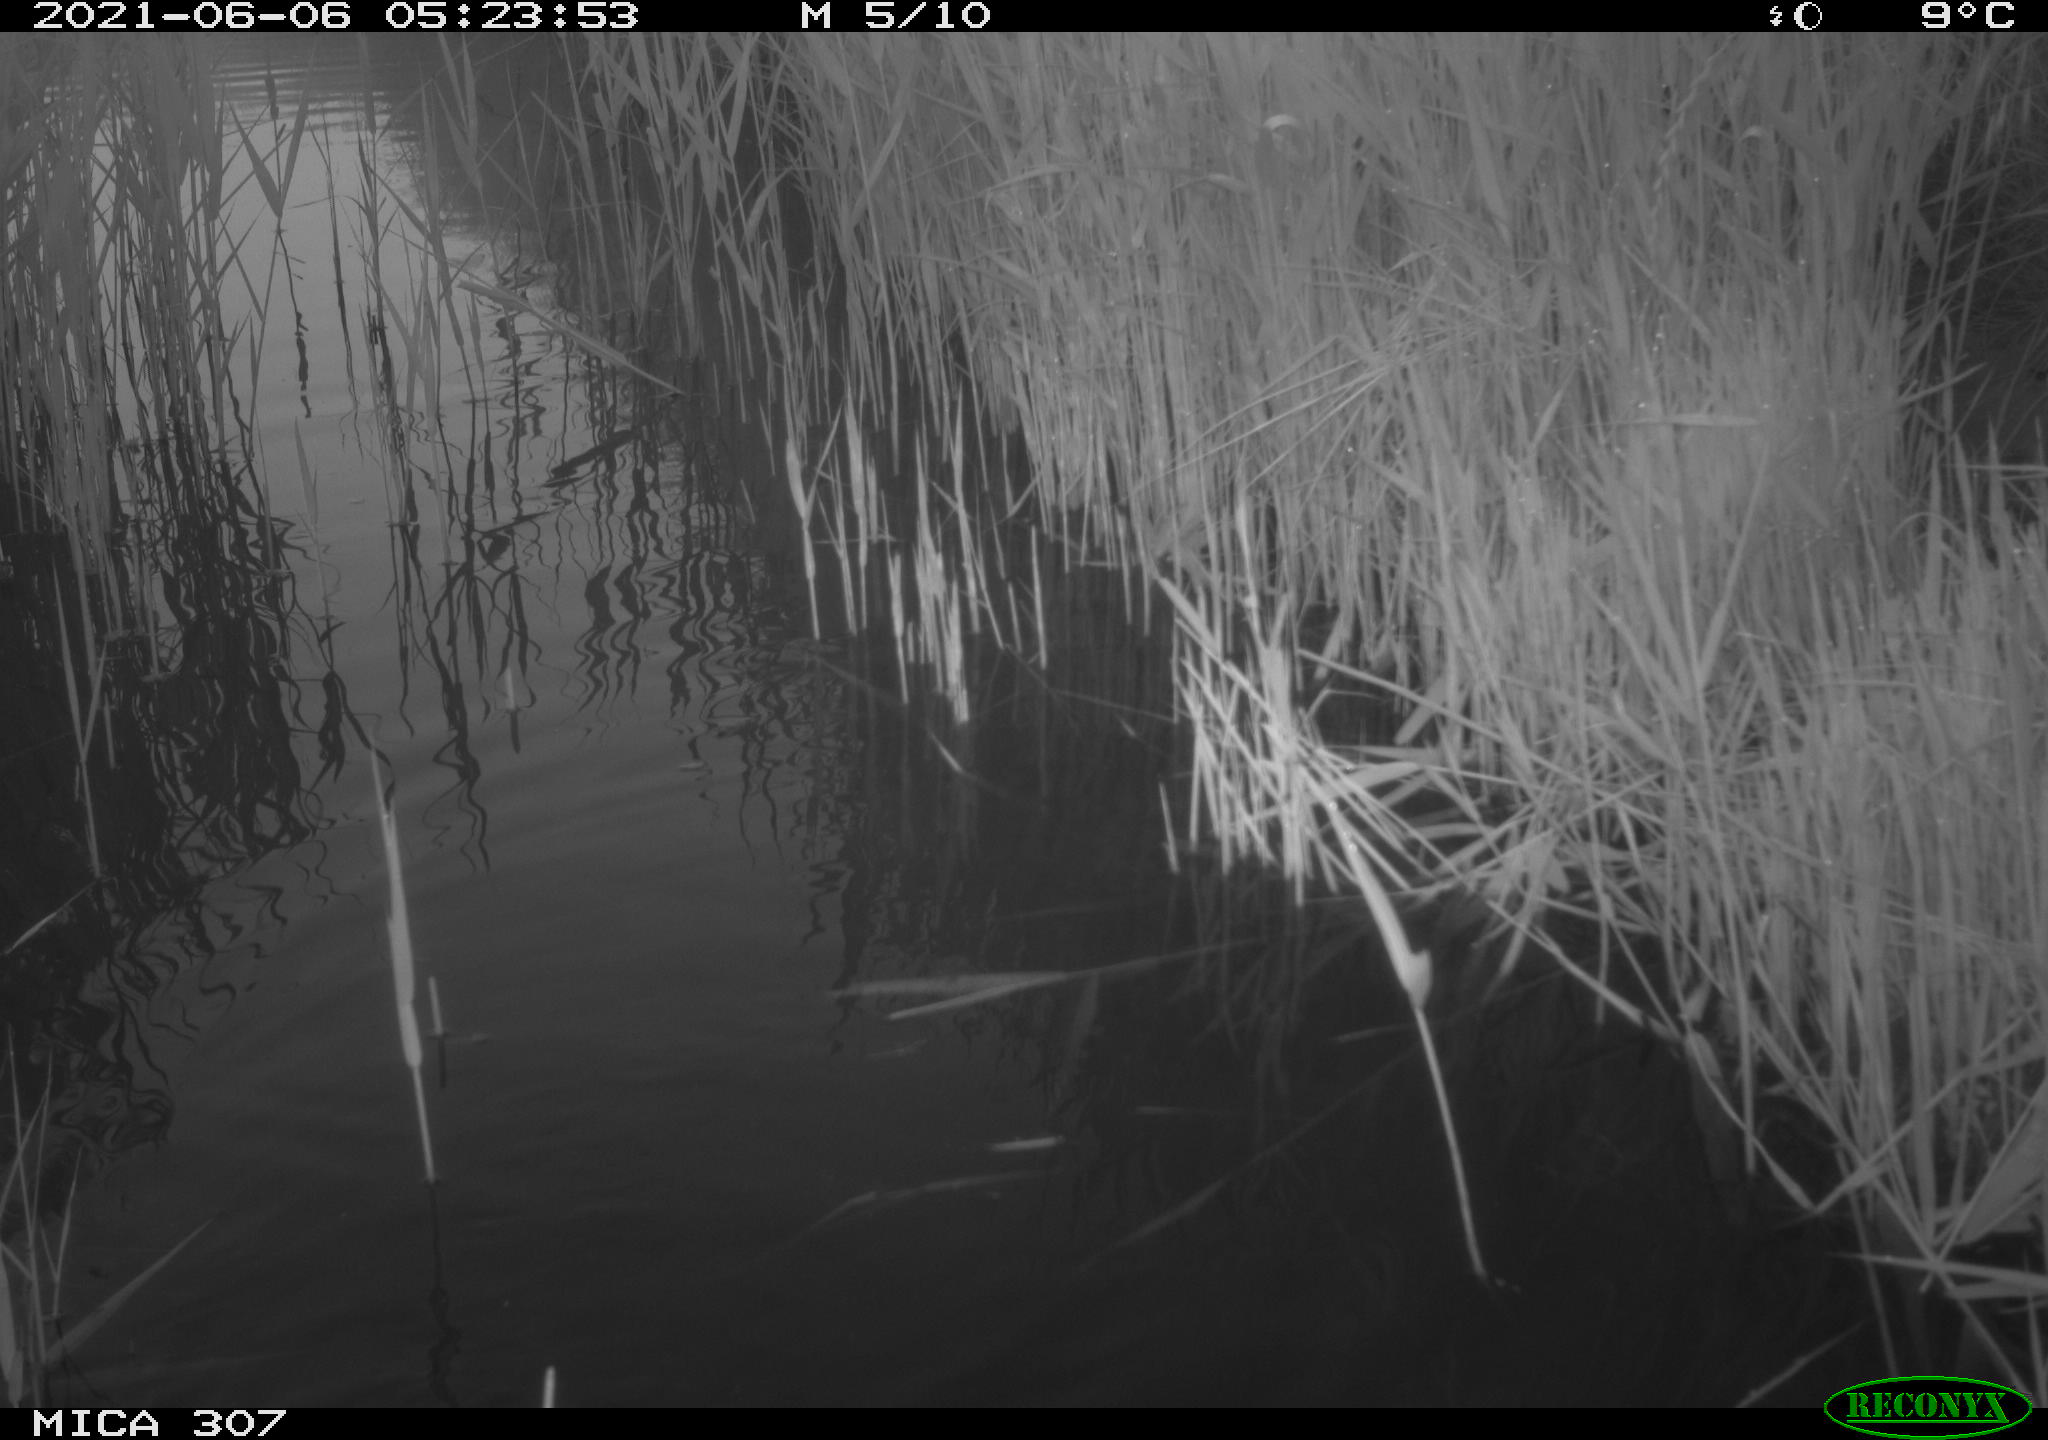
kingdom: Animalia
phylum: Chordata
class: Aves
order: Gruiformes
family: Rallidae
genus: Fulica
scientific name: Fulica atra
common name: Eurasian coot
